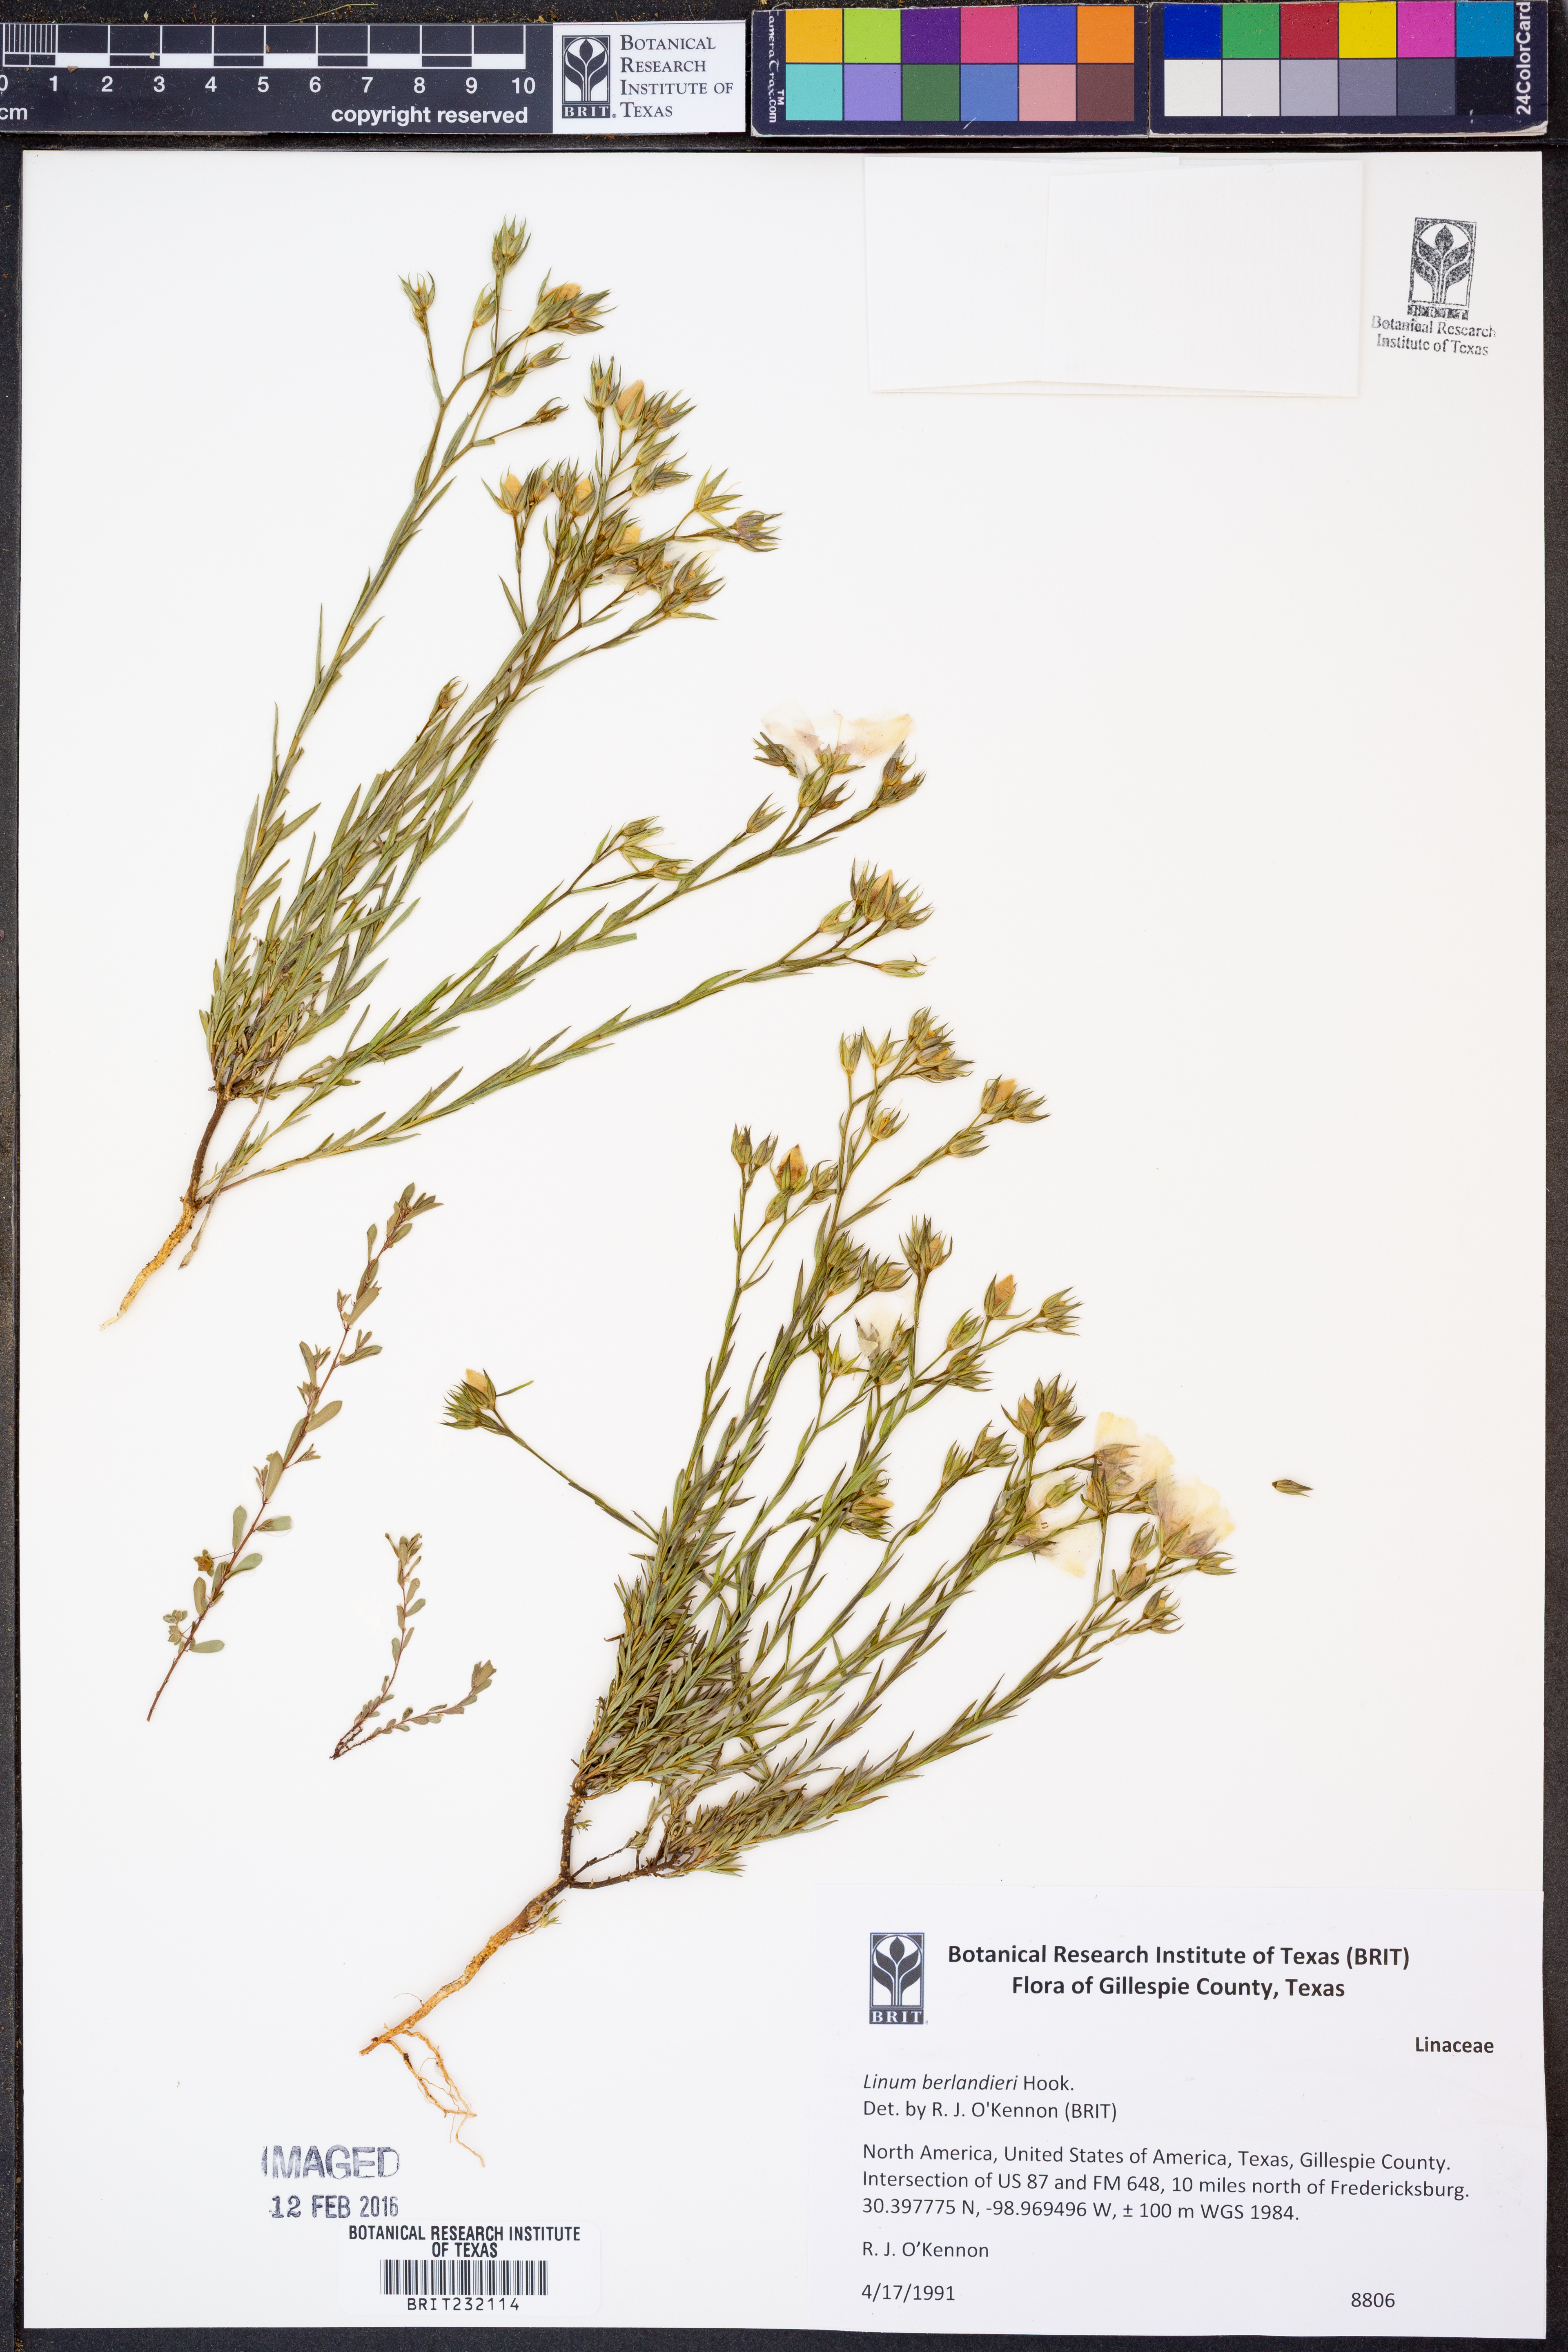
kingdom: Plantae
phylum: Tracheophyta
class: Magnoliopsida
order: Malpighiales
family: Linaceae
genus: Linum
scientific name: Linum berlandieri
